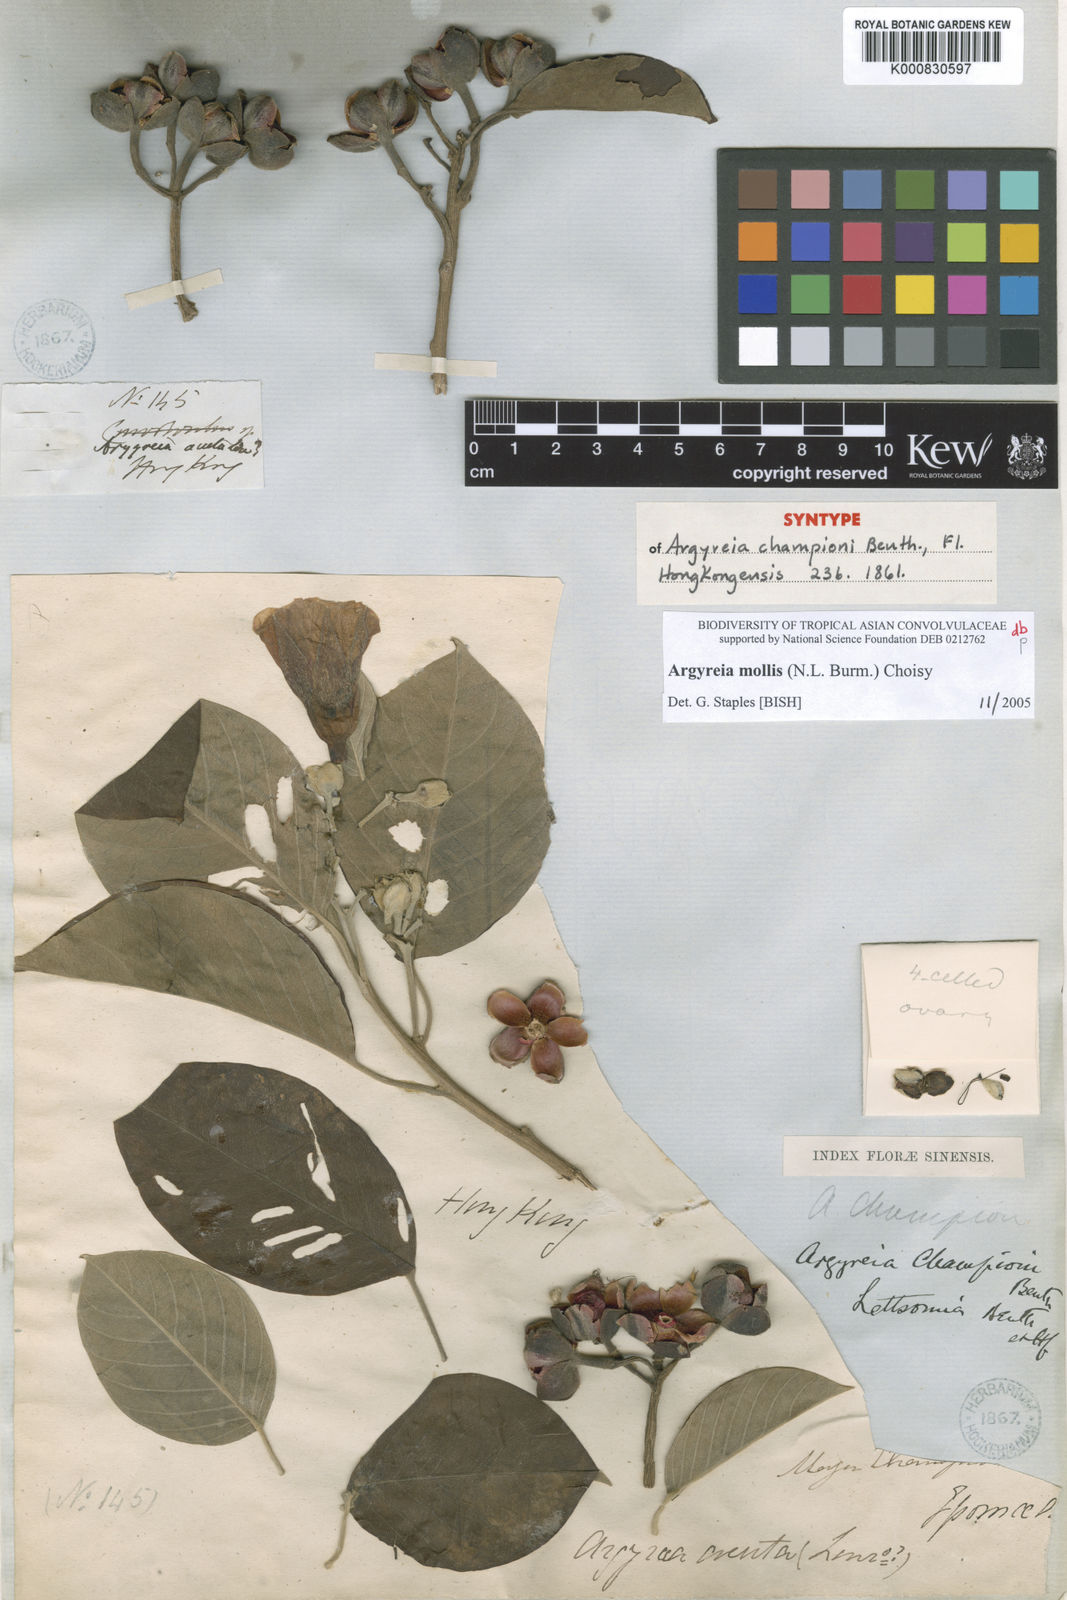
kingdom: Plantae
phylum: Tracheophyta
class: Magnoliopsida
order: Solanales
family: Convolvulaceae
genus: Argyreia
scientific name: Argyreia mollis
